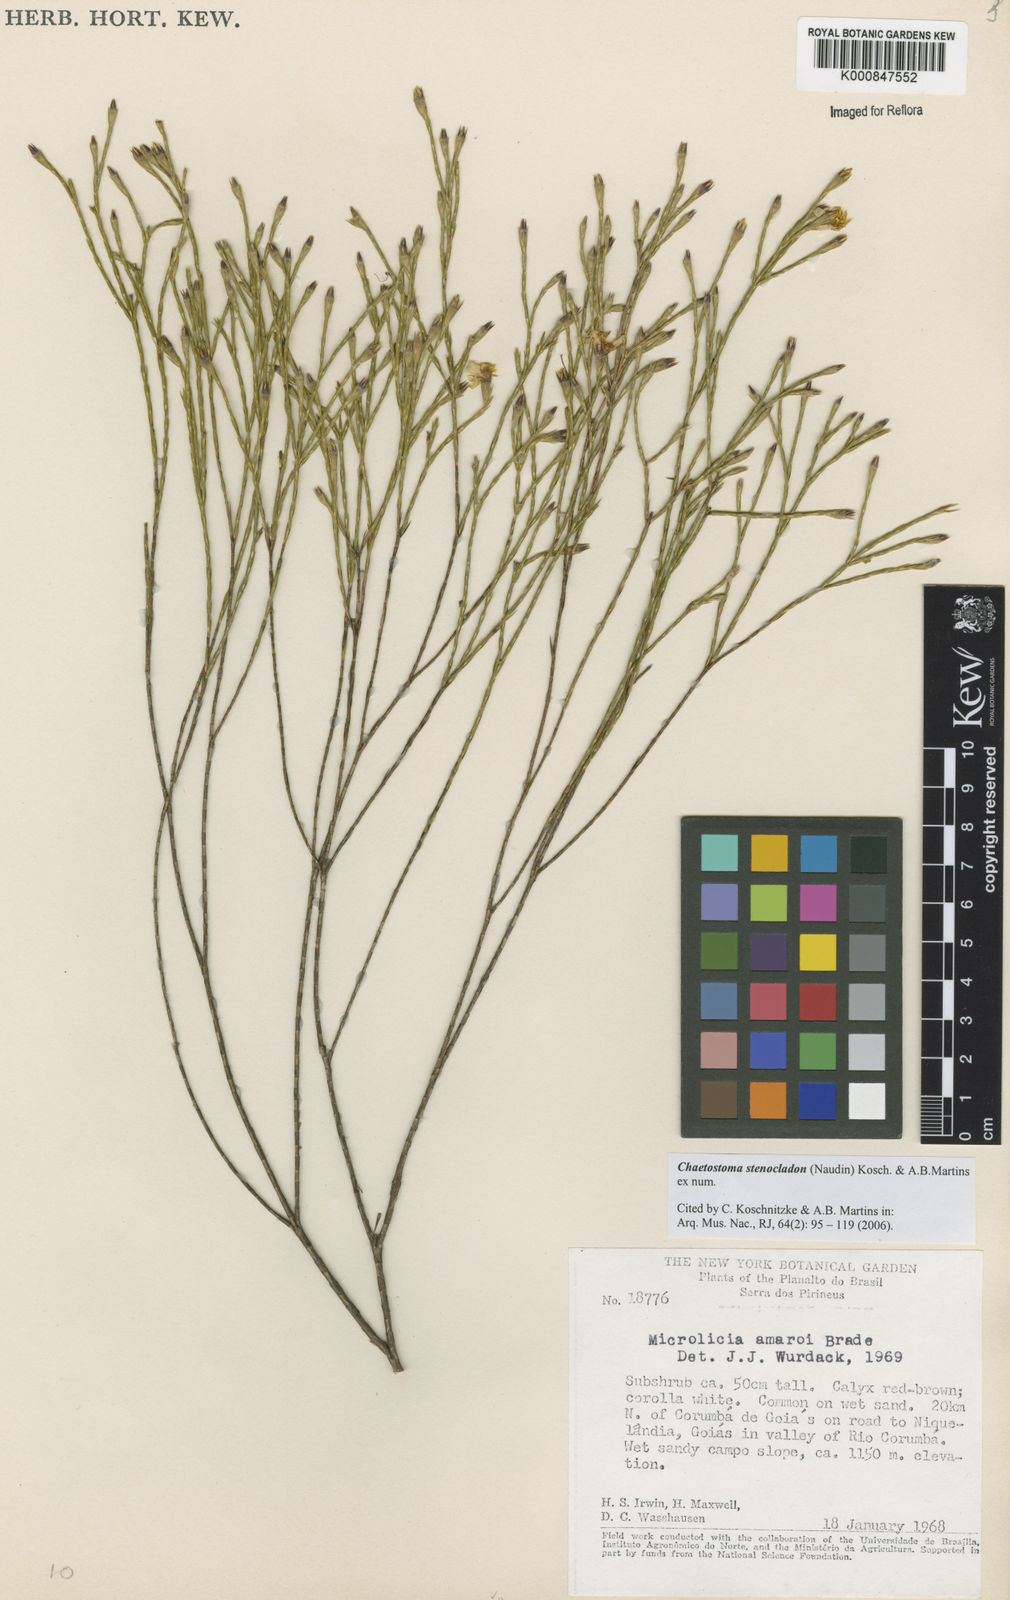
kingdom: Plantae
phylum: Tracheophyta
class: Magnoliopsida
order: Myrtales
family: Melastomataceae
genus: Microlicia
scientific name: Microlicia stenocladon
